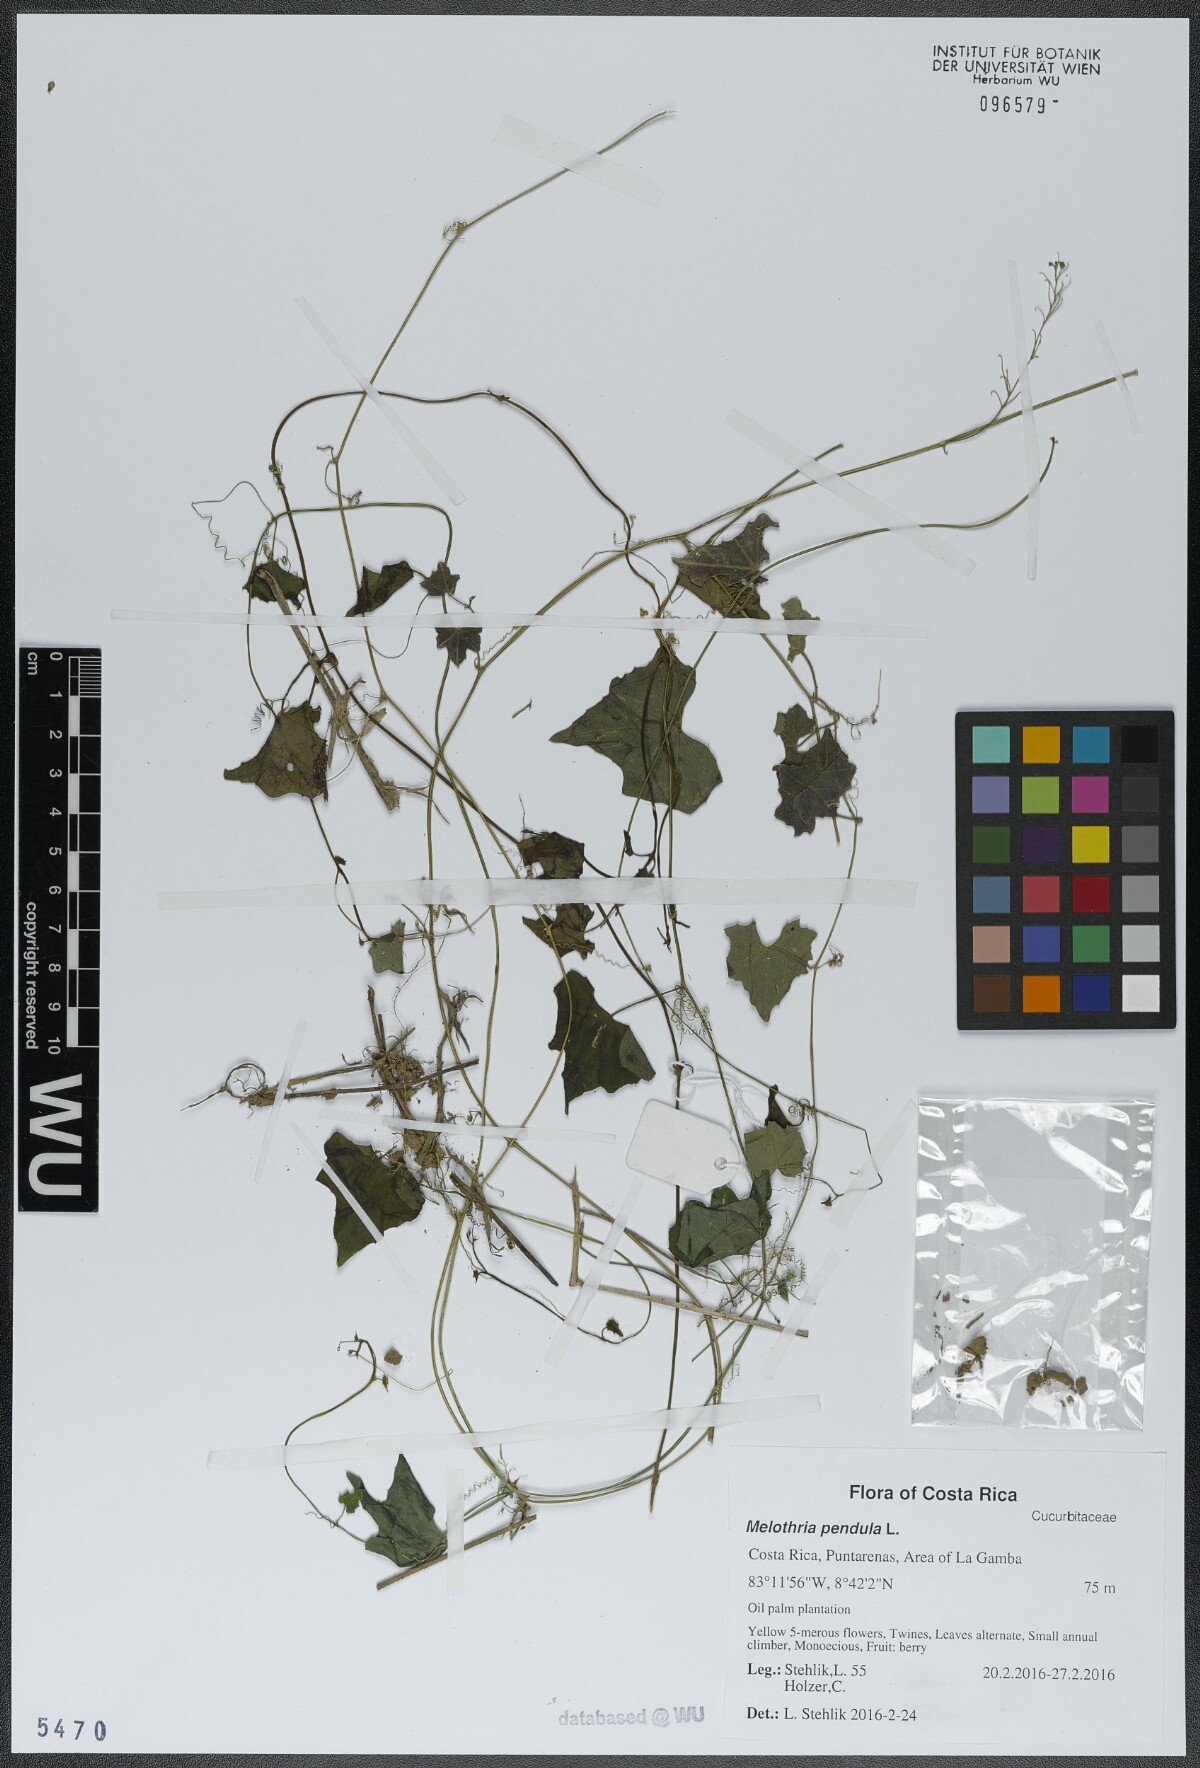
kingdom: Plantae
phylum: Tracheophyta
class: Magnoliopsida
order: Cucurbitales
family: Cucurbitaceae
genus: Melothria
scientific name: Melothria pendula
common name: Creeping-cucumber
